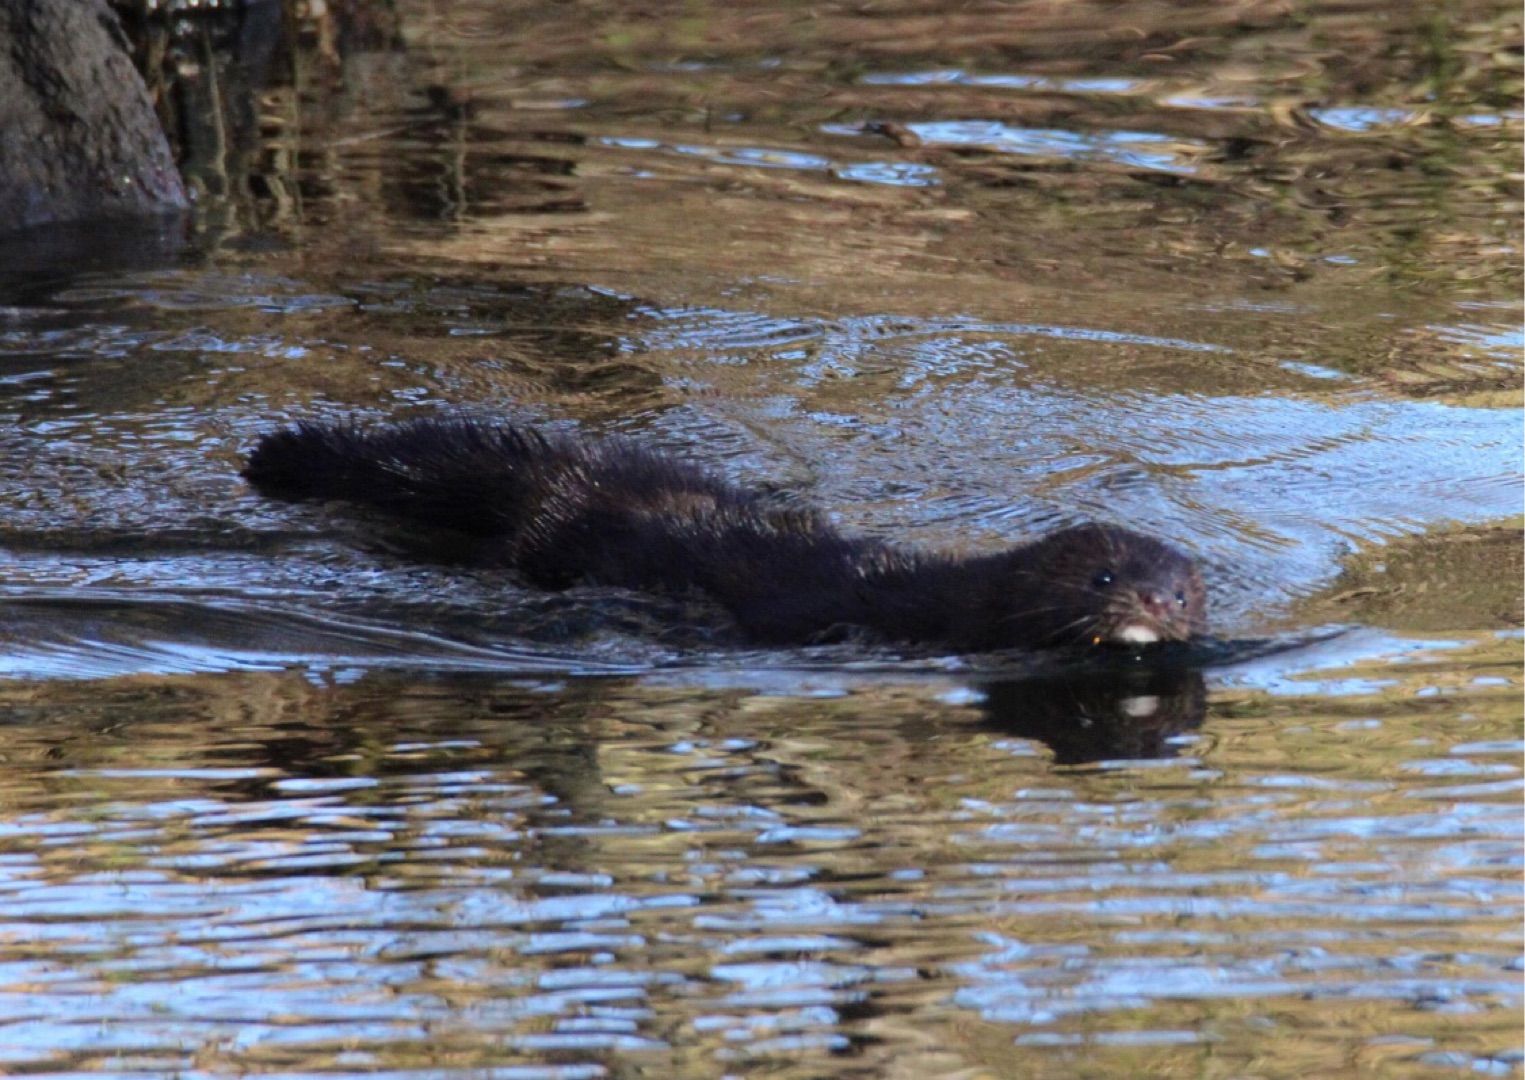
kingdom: Animalia
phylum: Chordata
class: Mammalia
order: Carnivora
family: Mustelidae
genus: Mustela
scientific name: Mustela vison
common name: Mink
